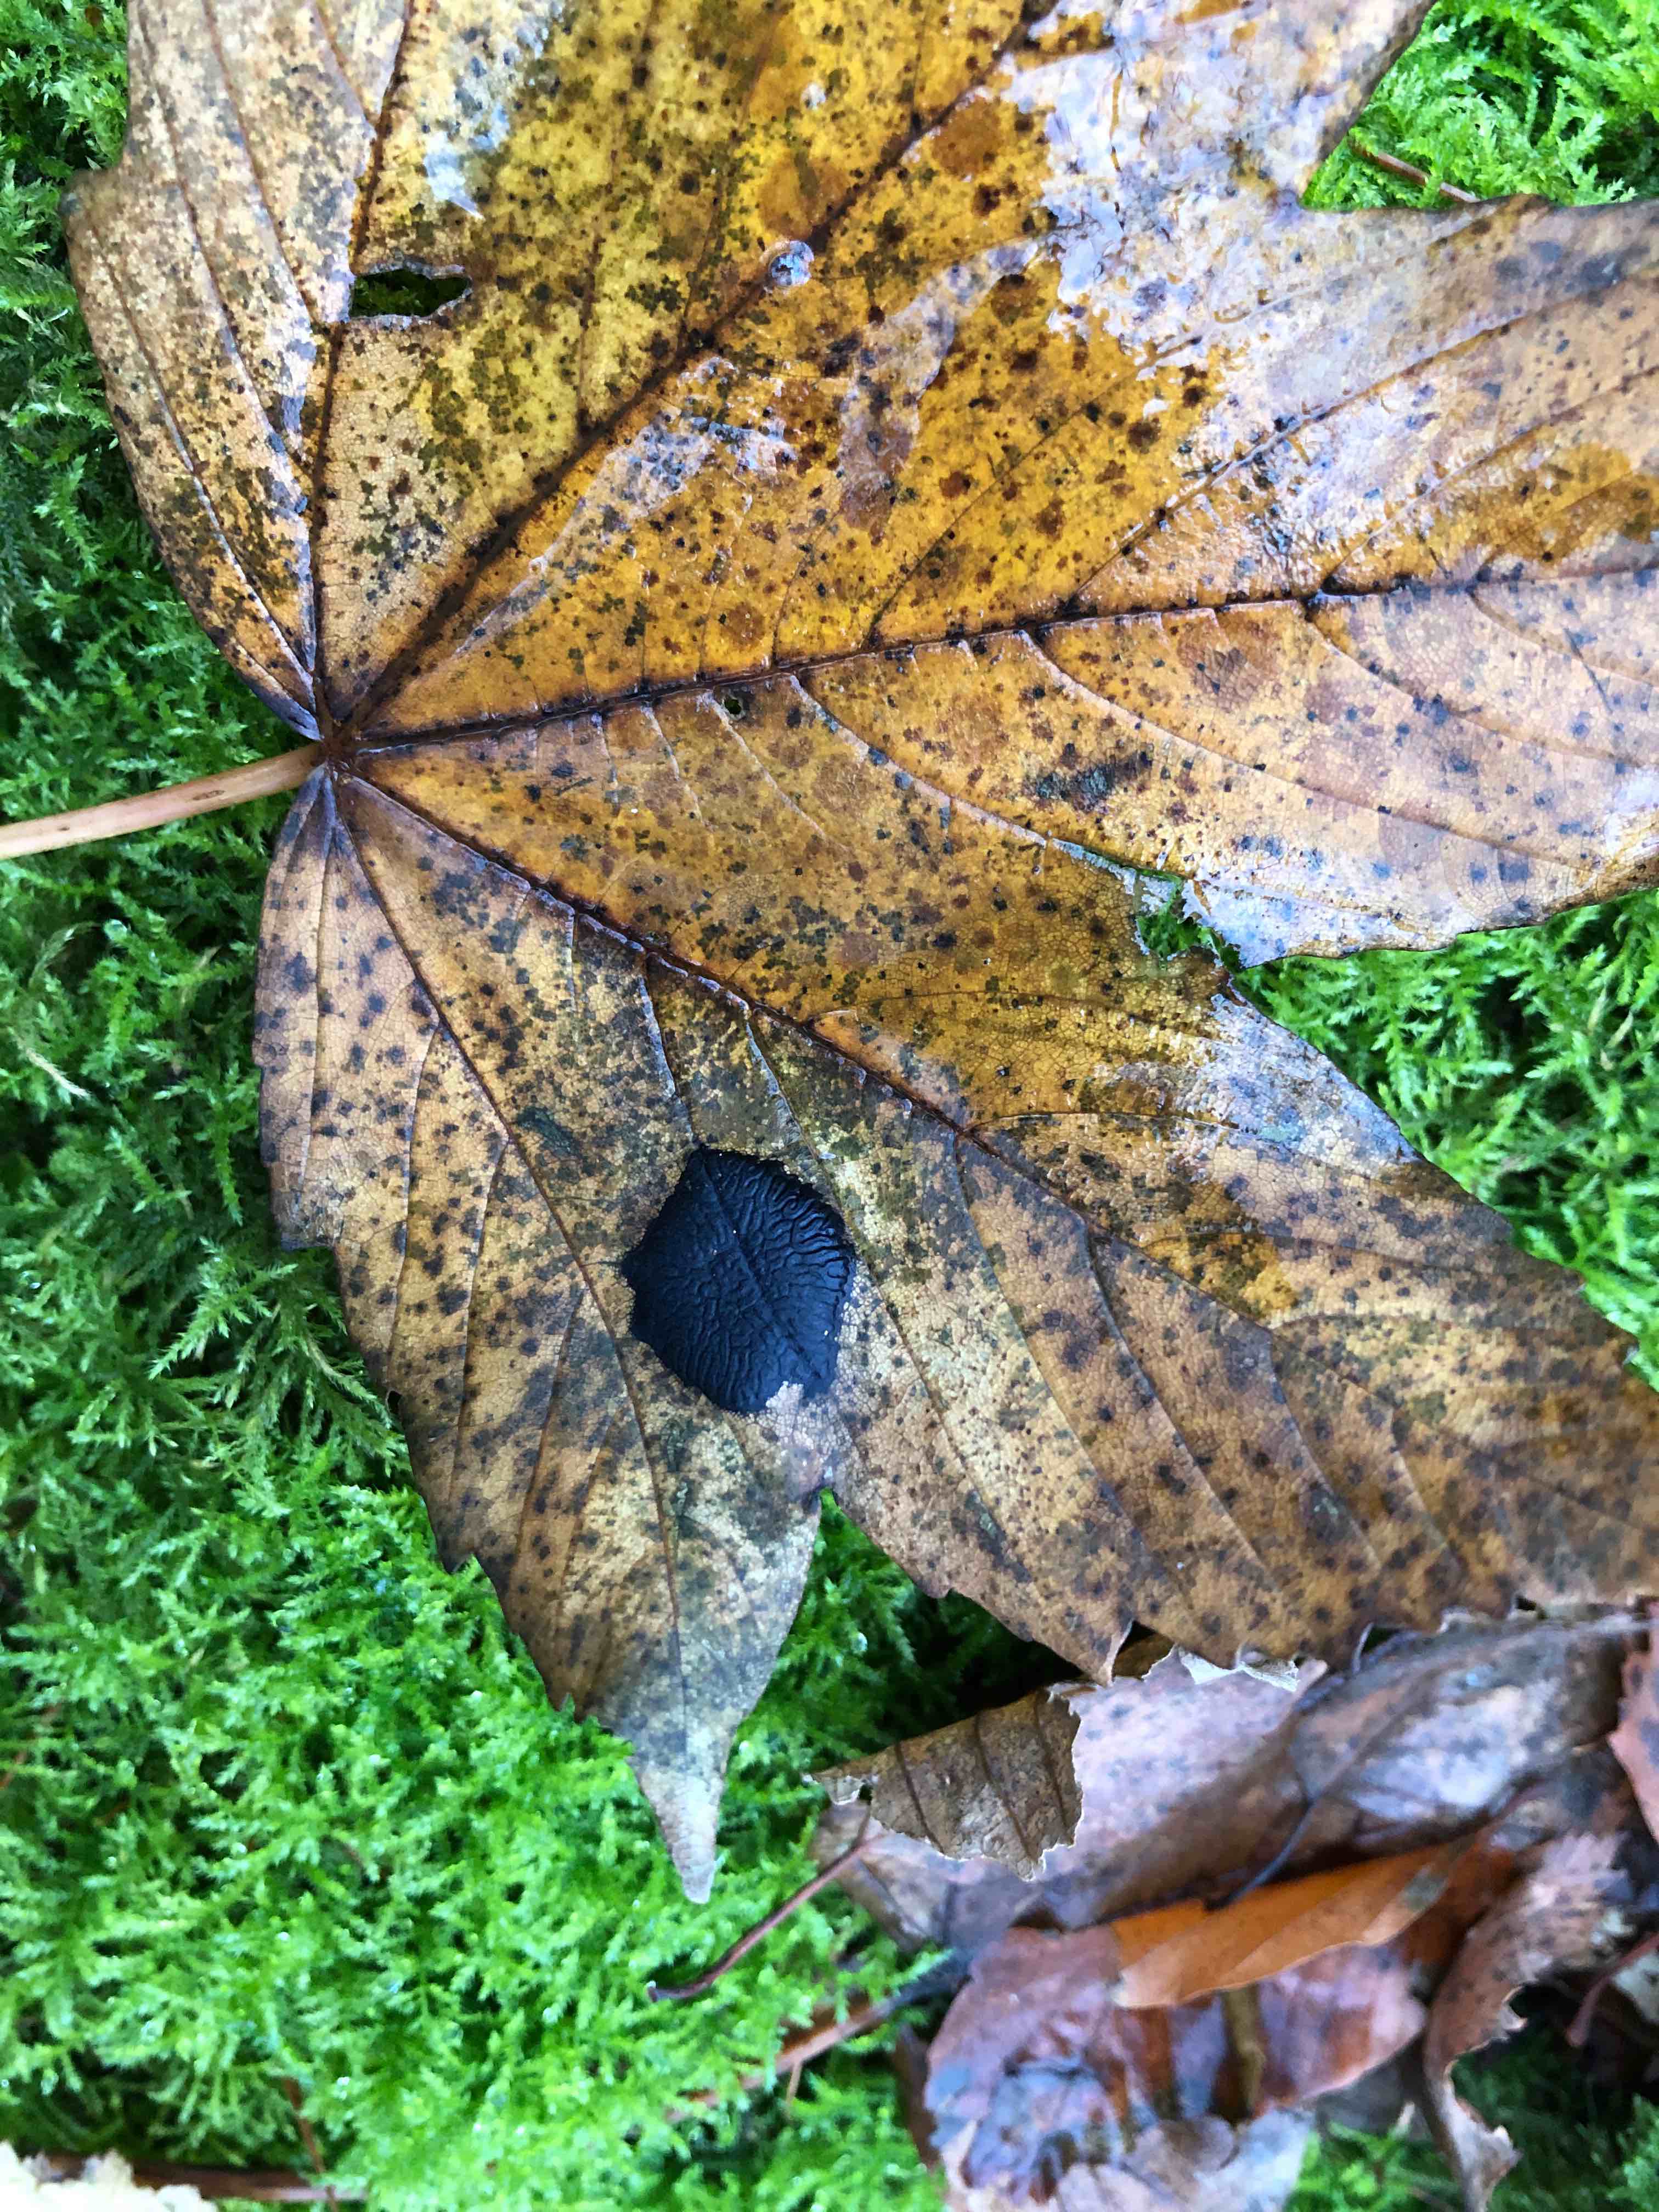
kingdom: Fungi
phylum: Ascomycota
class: Leotiomycetes
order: Rhytismatales
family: Rhytismataceae
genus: Rhytisma
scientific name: Rhytisma acerinum
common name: ahorn-rynkeplet
